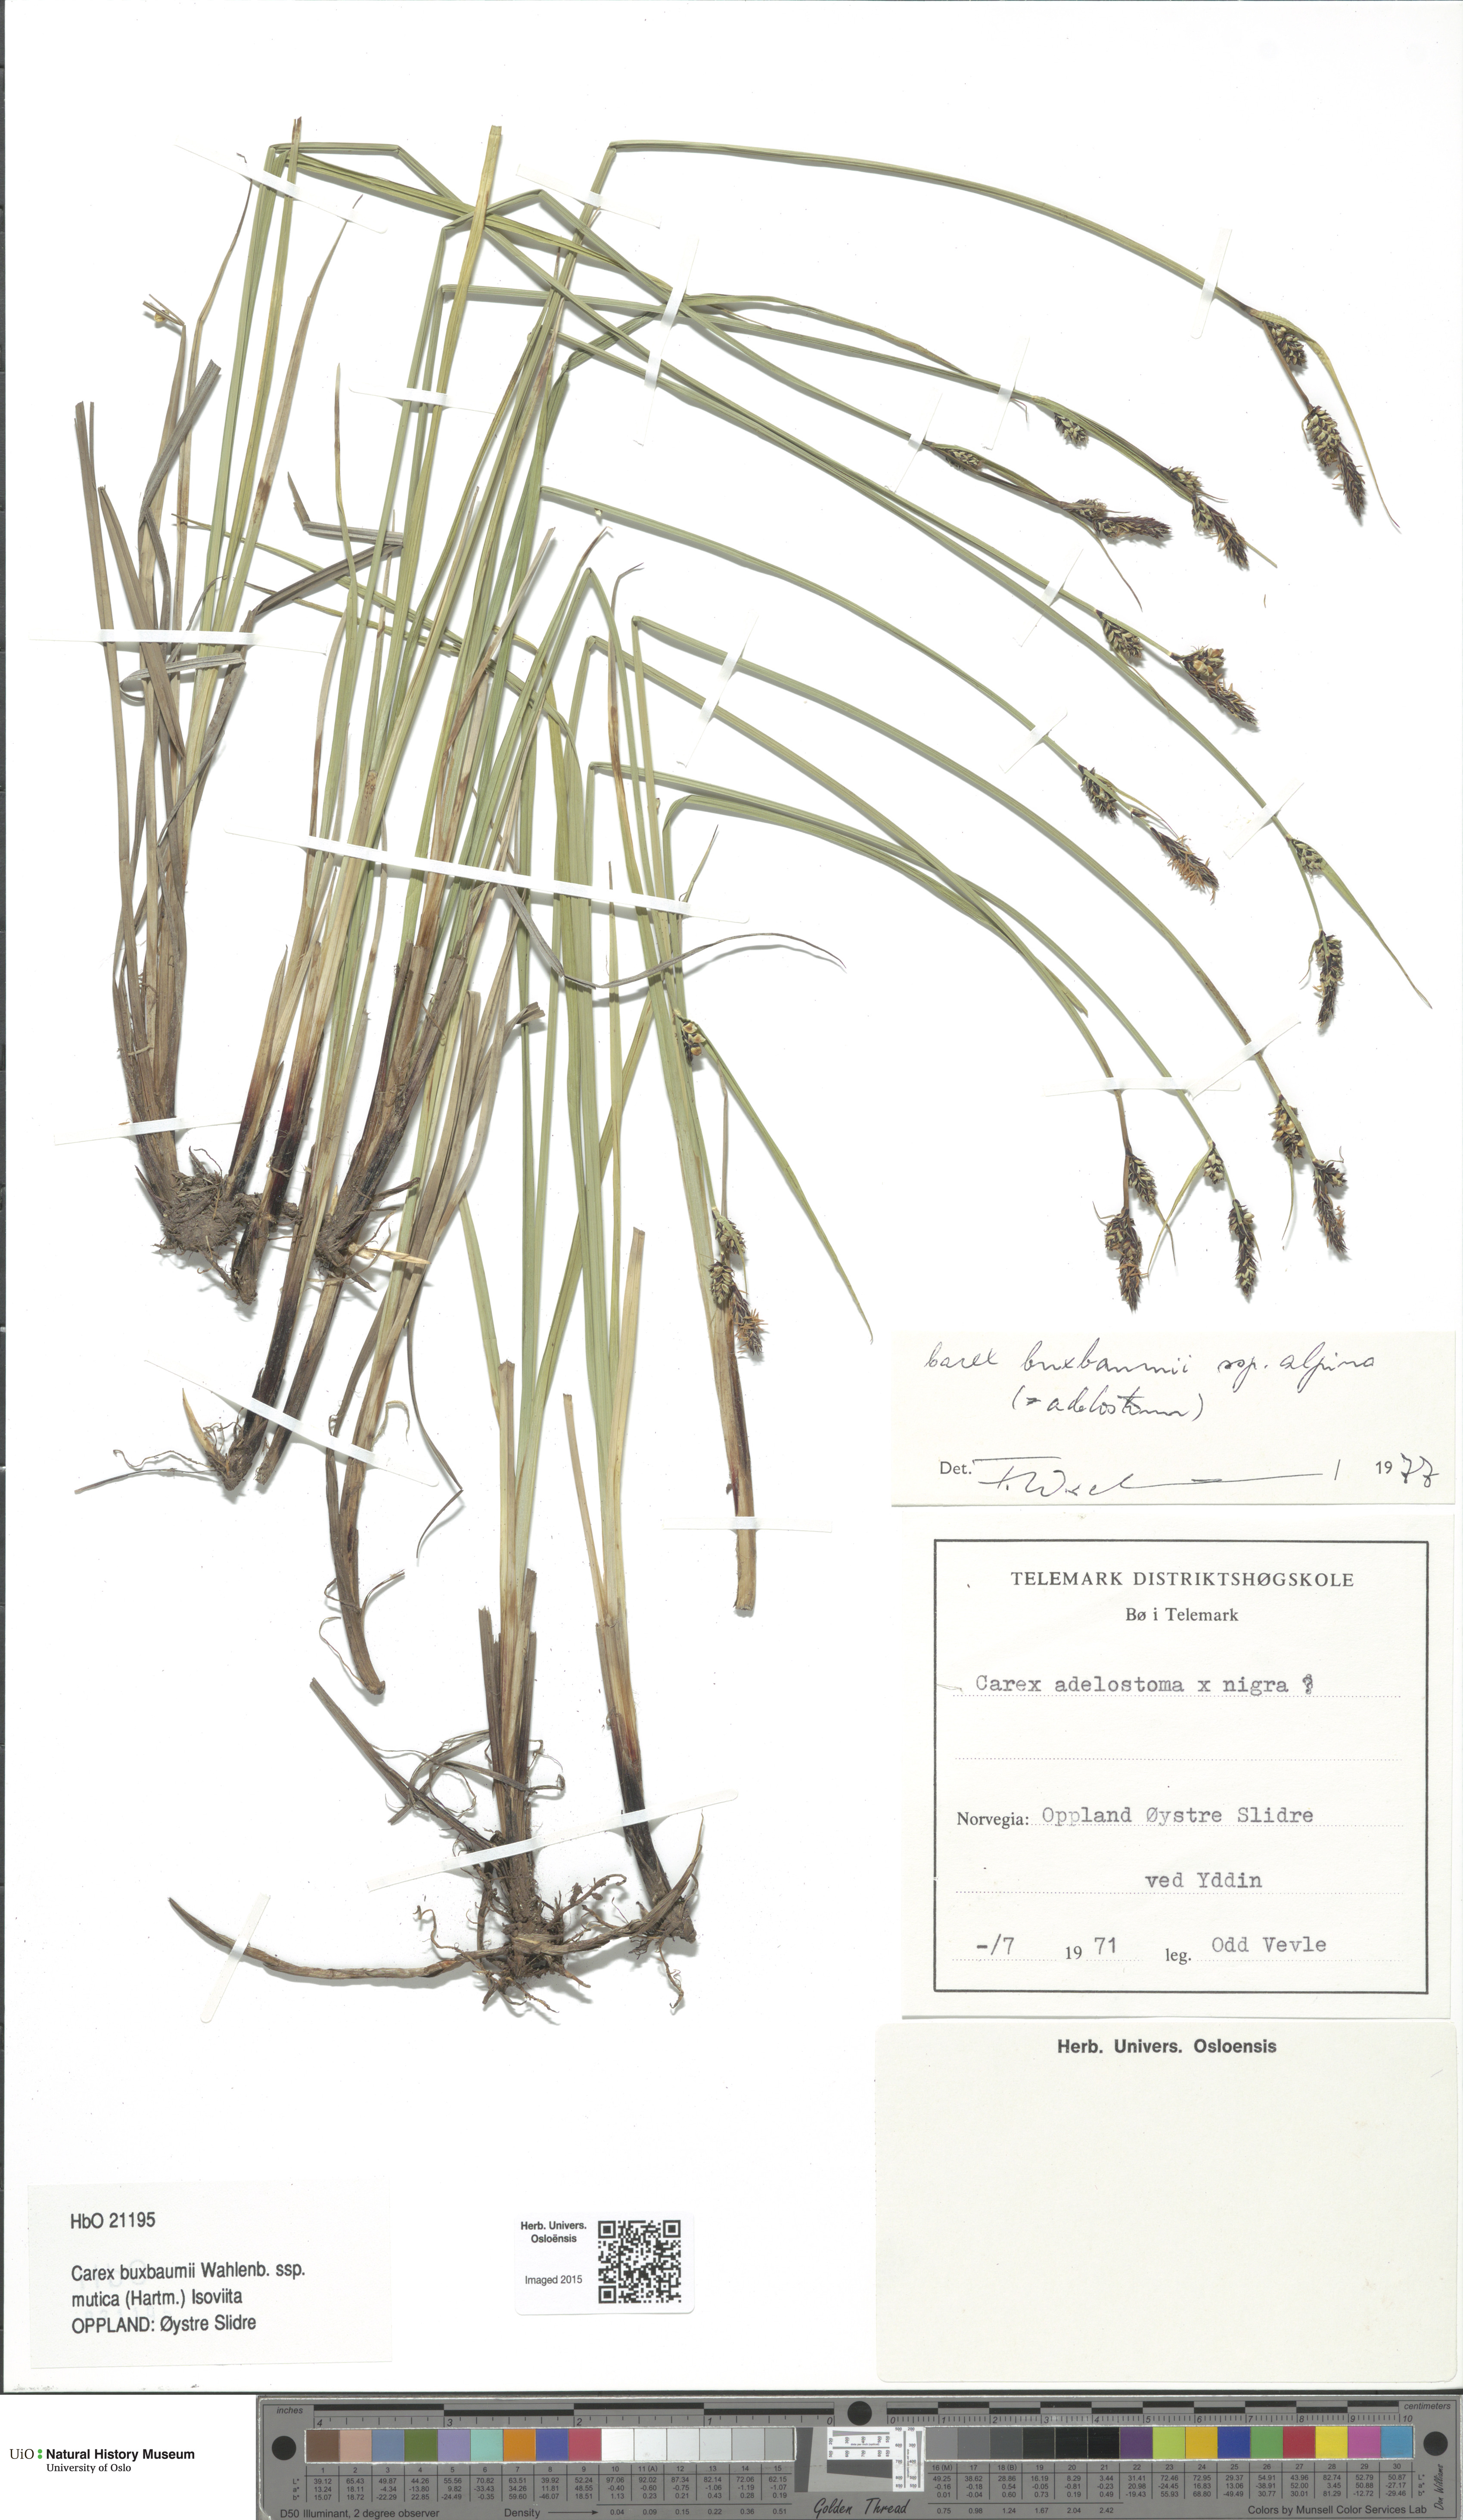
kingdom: Plantae
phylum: Tracheophyta
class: Liliopsida
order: Poales
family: Cyperaceae
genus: Carex
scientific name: Carex adelostoma
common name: Circumpolar sedge
